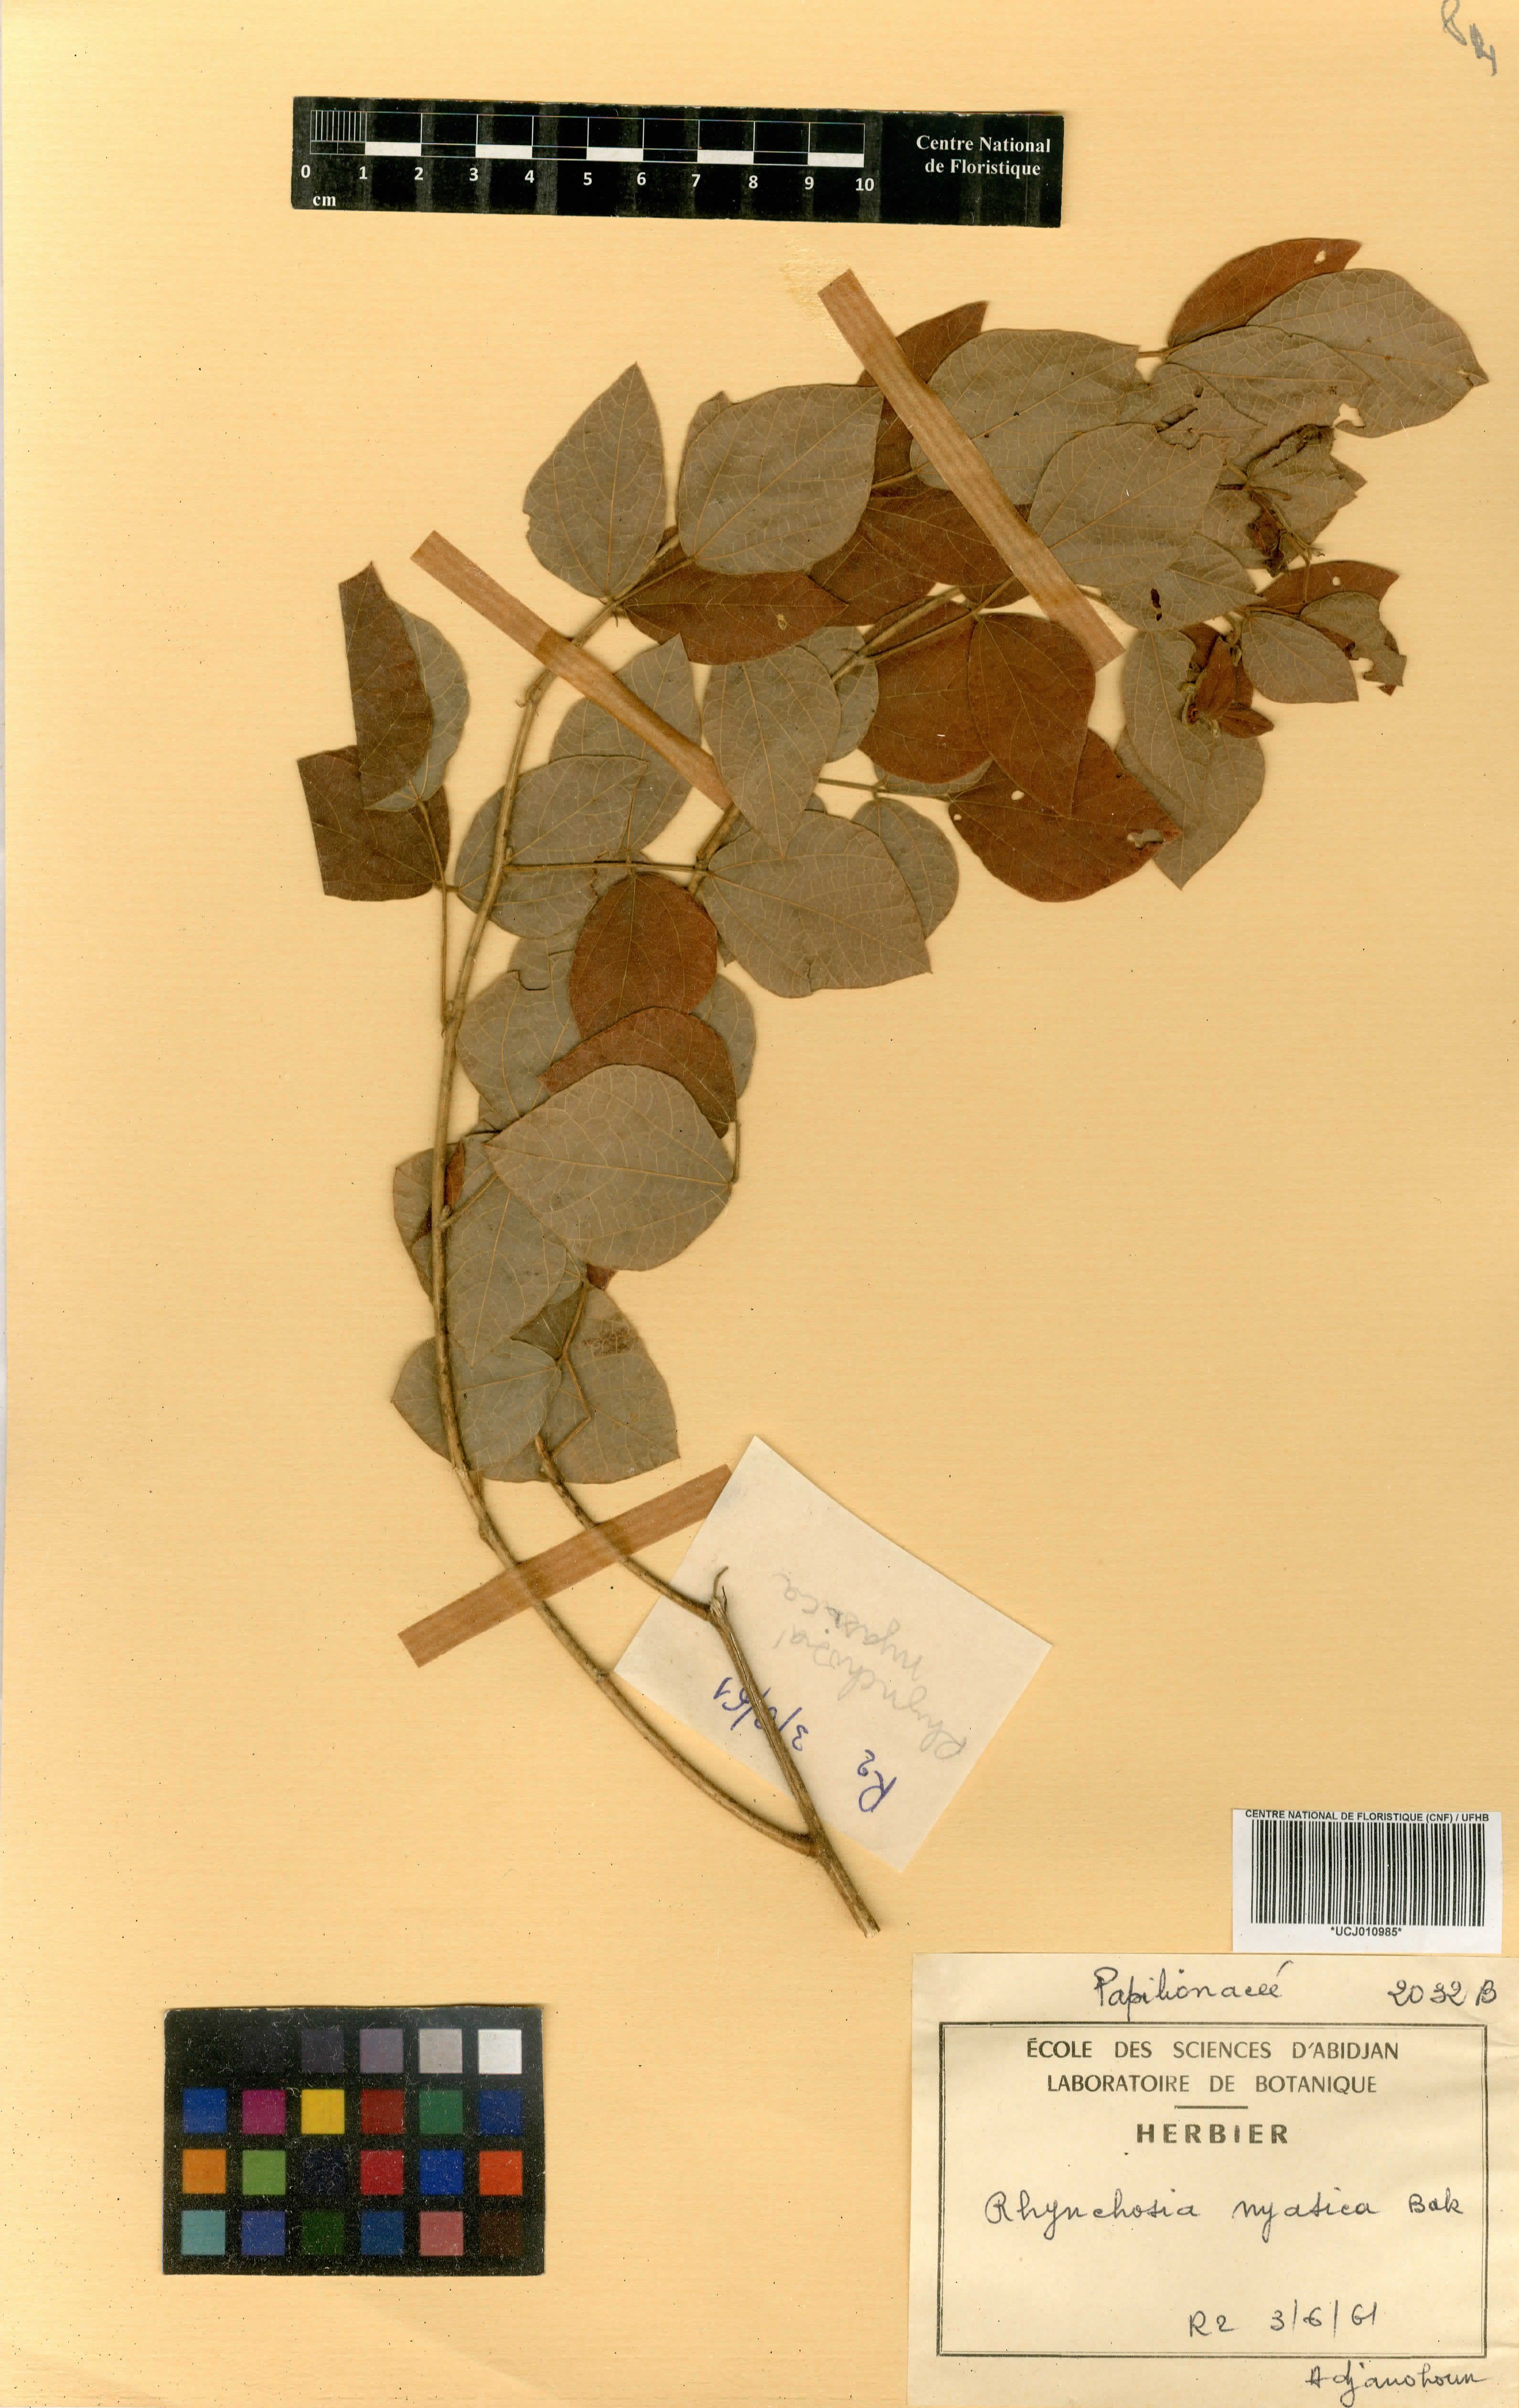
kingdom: Plantae
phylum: Tracheophyta
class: Magnoliopsida
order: Fabales
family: Fabaceae
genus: Rhynchosia
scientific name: Rhynchosia resinosa
